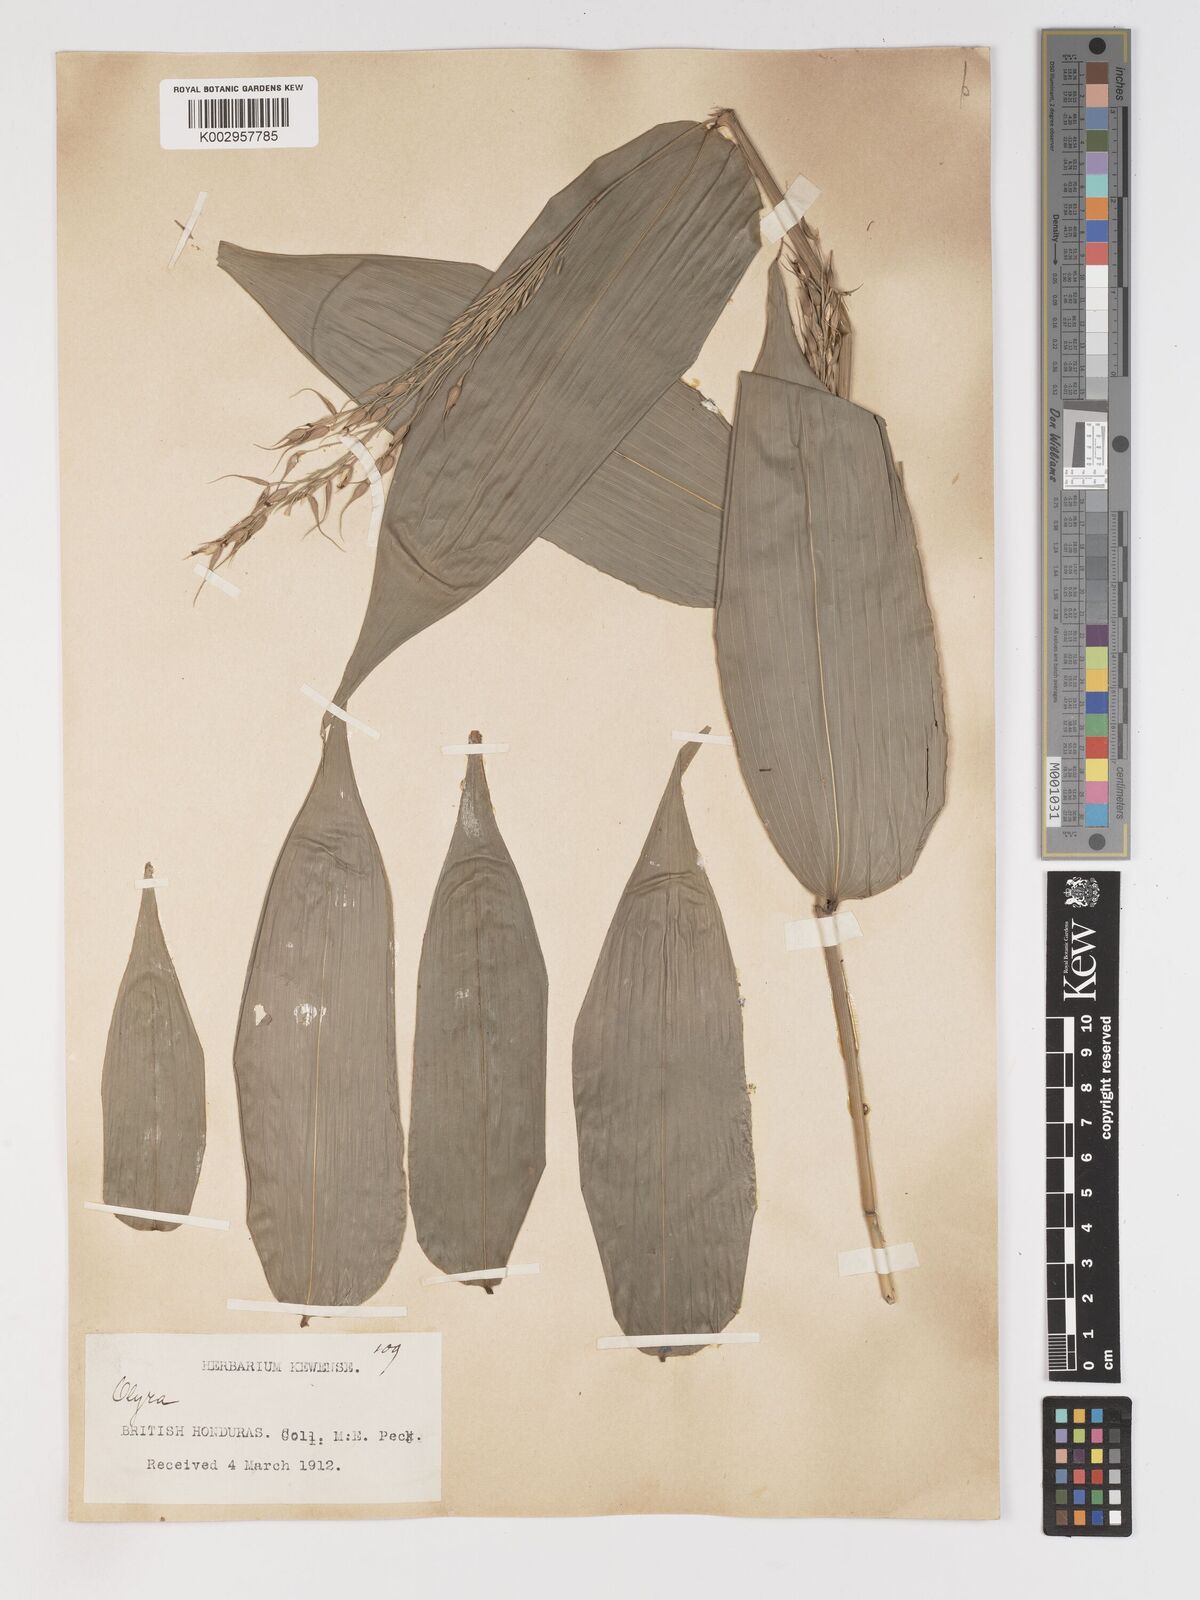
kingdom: Plantae
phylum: Tracheophyta
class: Liliopsida
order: Poales
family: Poaceae
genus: Olyra
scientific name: Olyra latifolia
